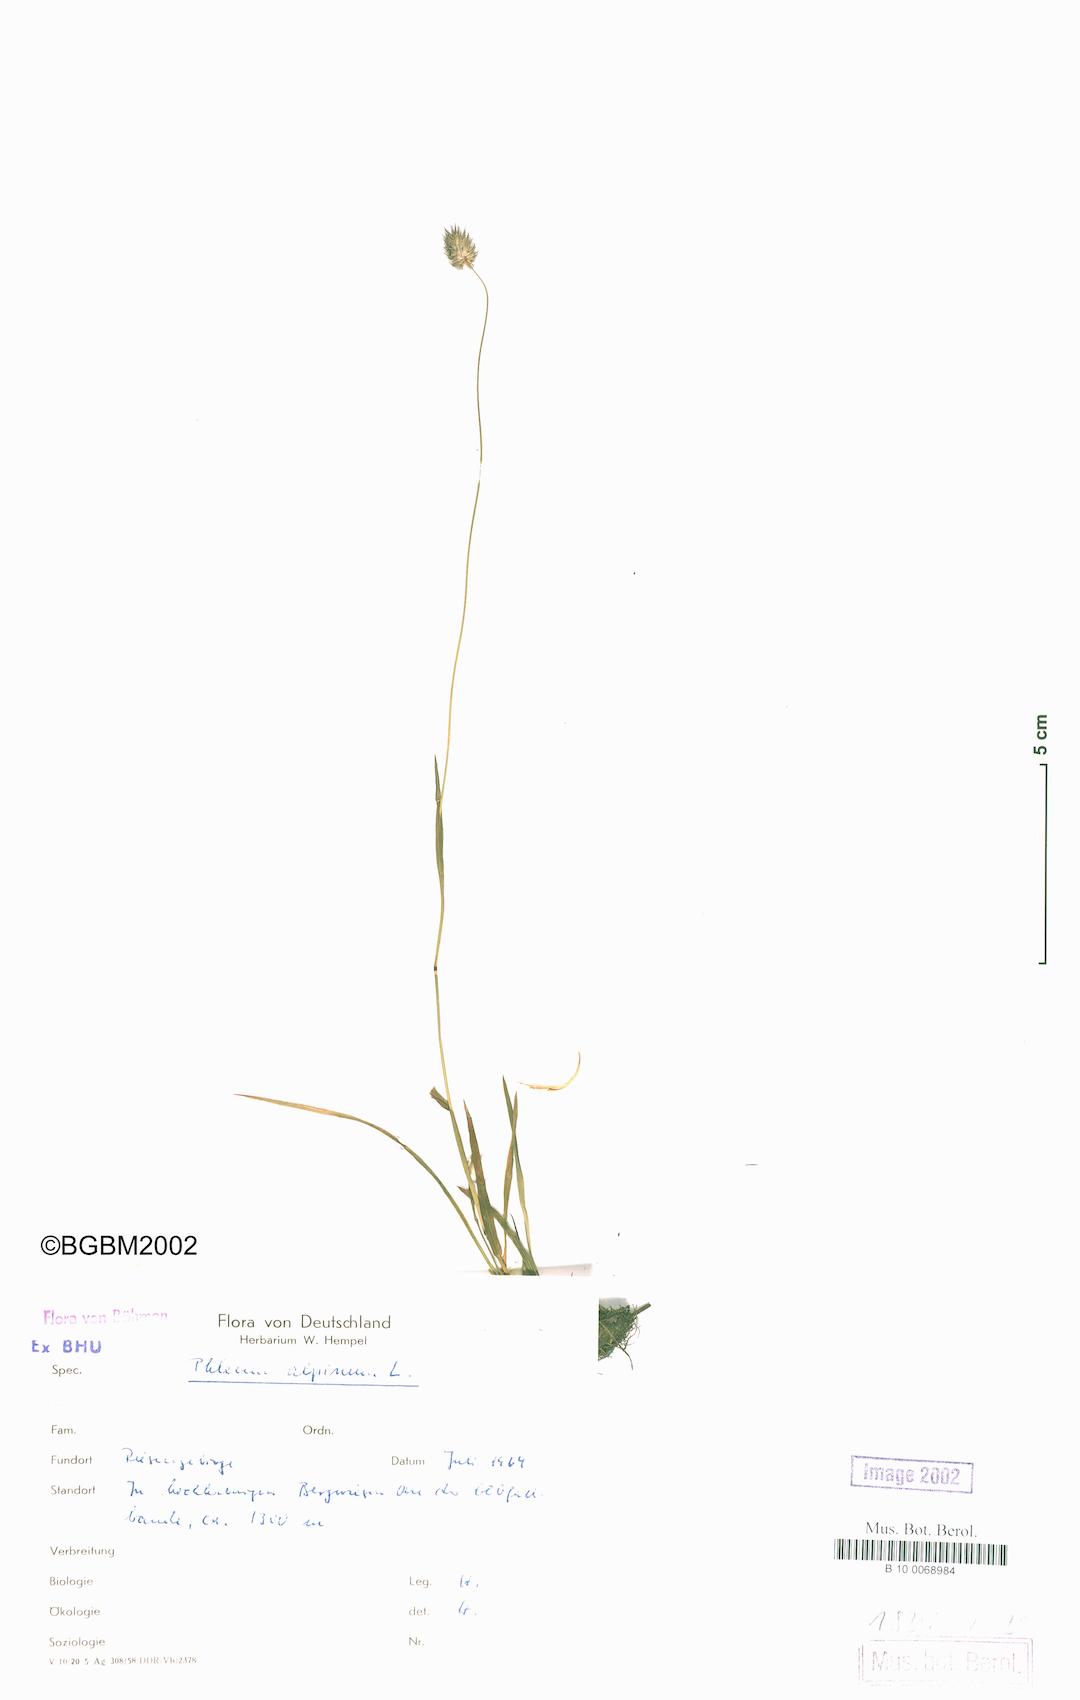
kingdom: Plantae
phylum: Tracheophyta
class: Liliopsida
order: Poales
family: Poaceae
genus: Phleum
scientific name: Phleum alpinum
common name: Alpine cat's-tail
